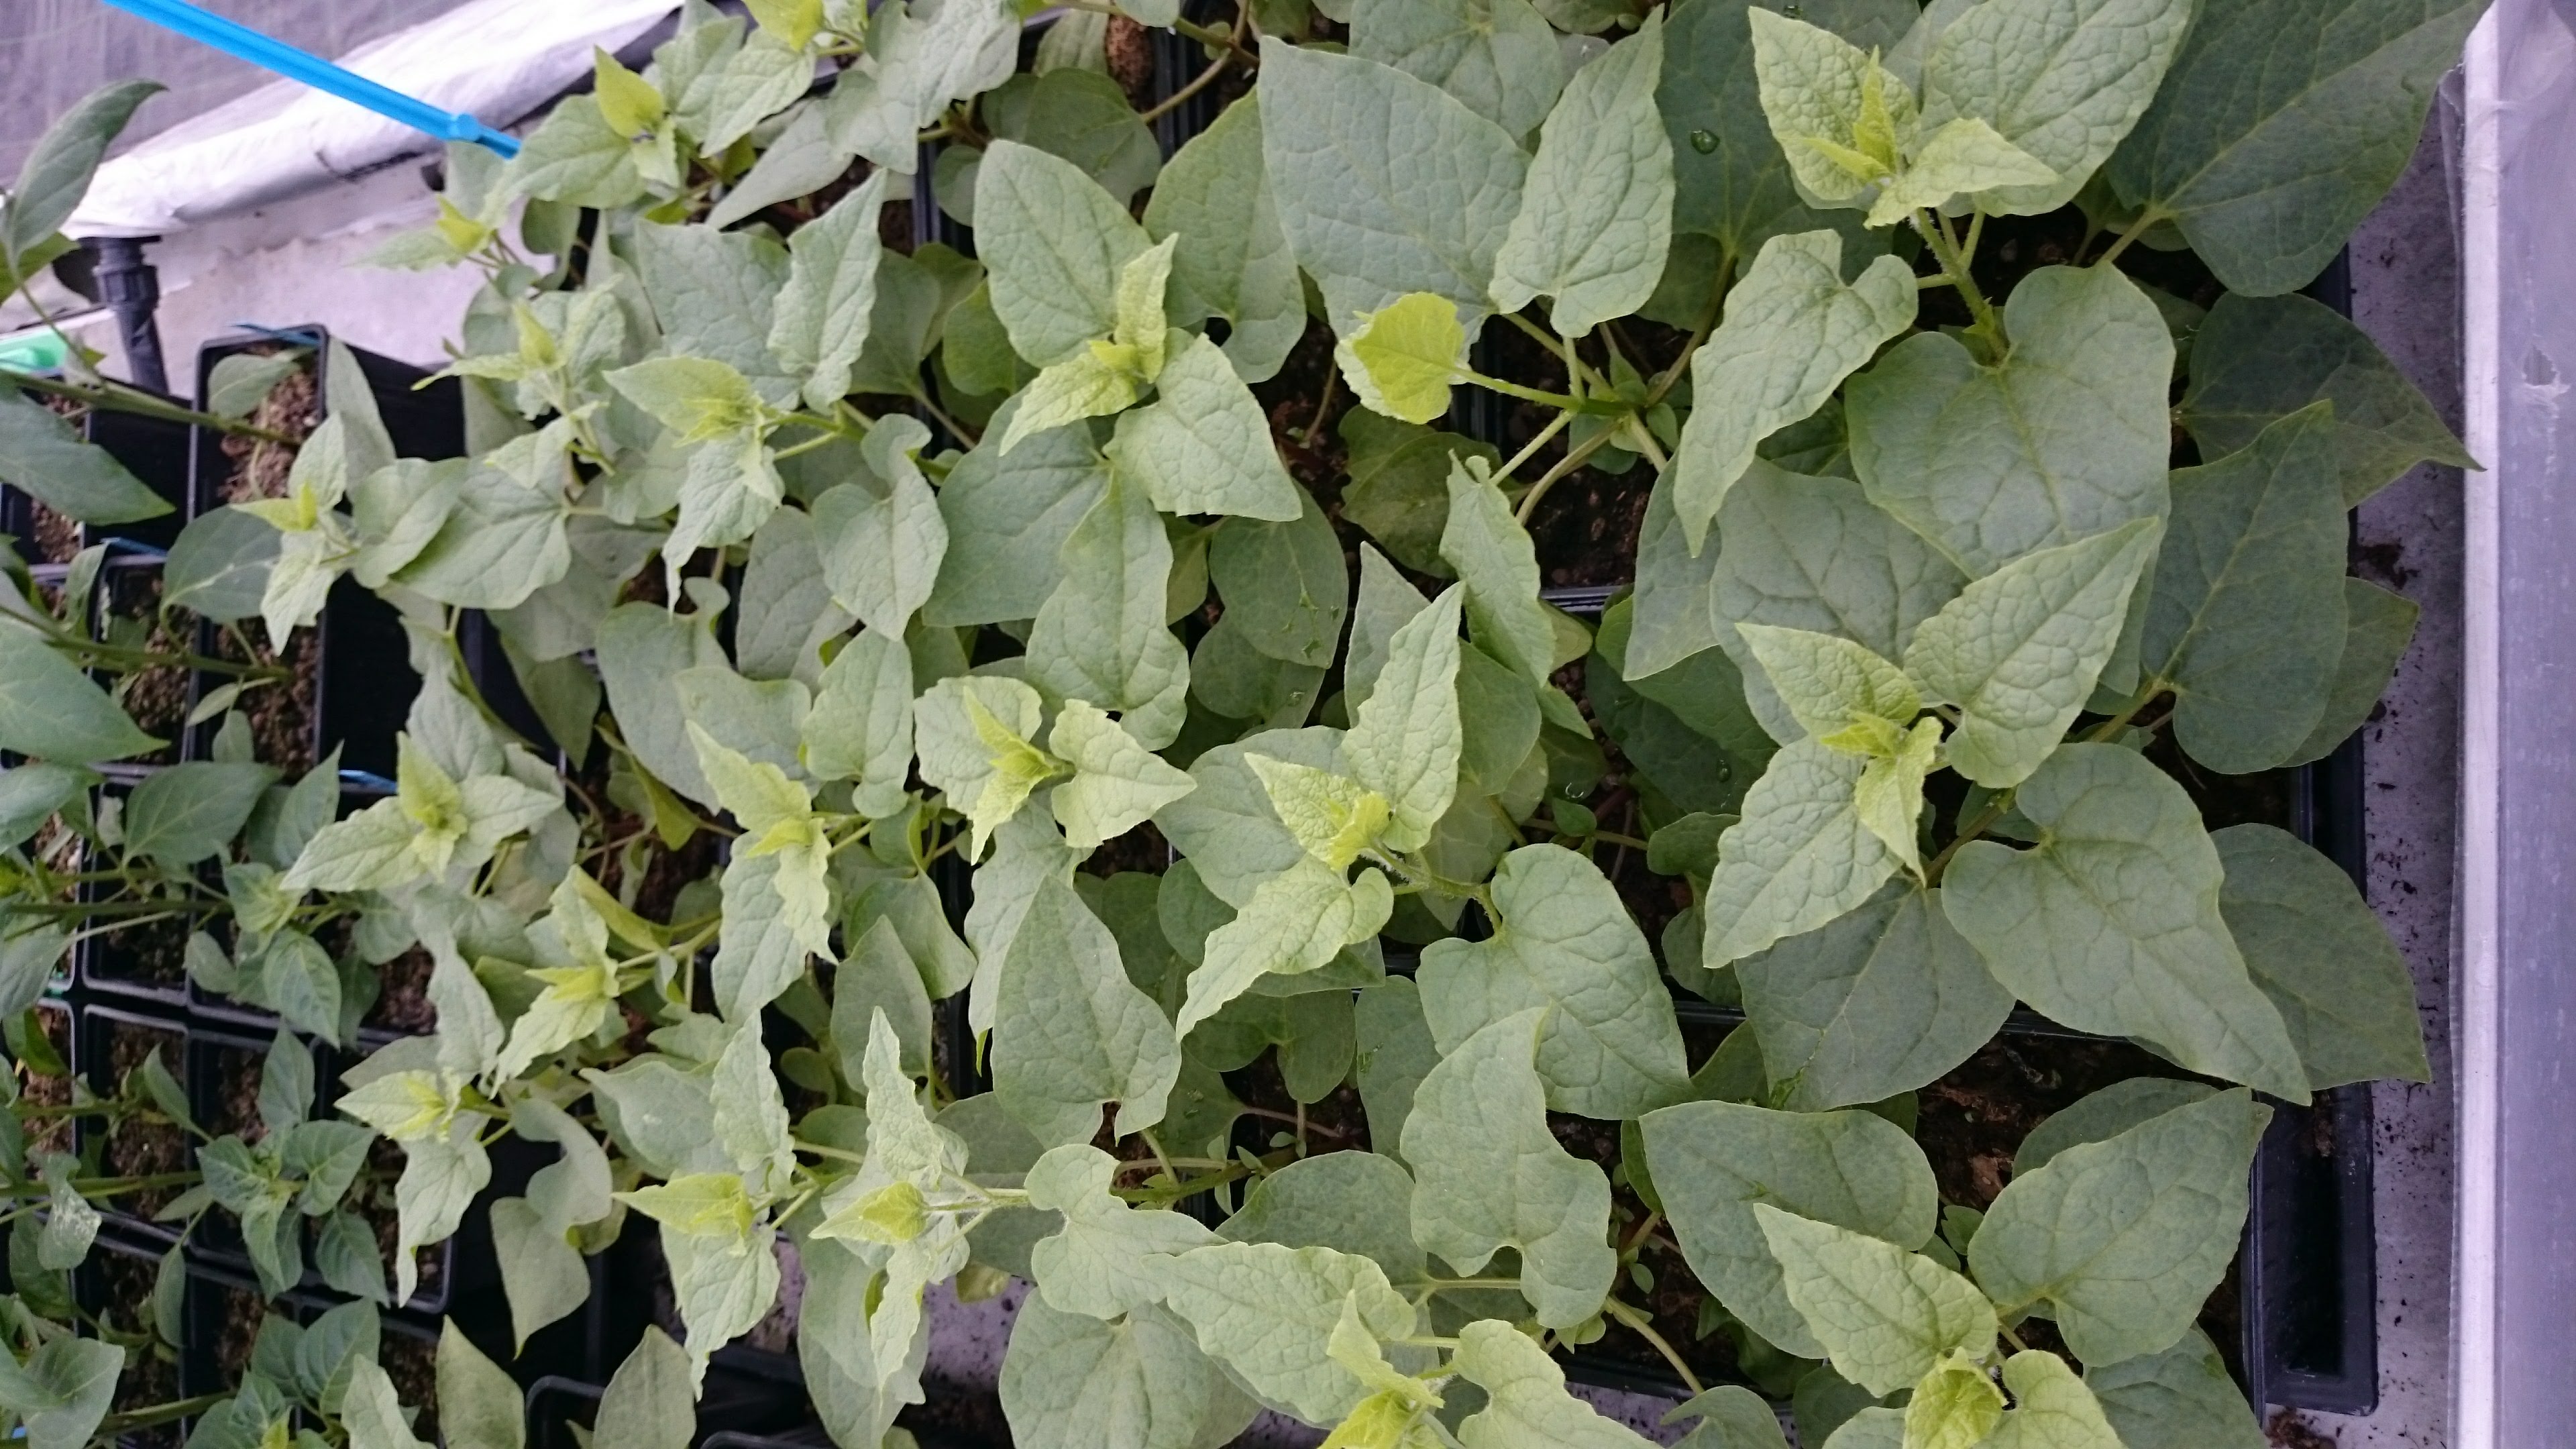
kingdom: Plantae
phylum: Tracheophyta
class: Magnoliopsida
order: Caryophyllales
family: Amaranthaceae
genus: Hablitzia
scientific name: Hablitzia tamnoides
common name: Caucasian-spinach
